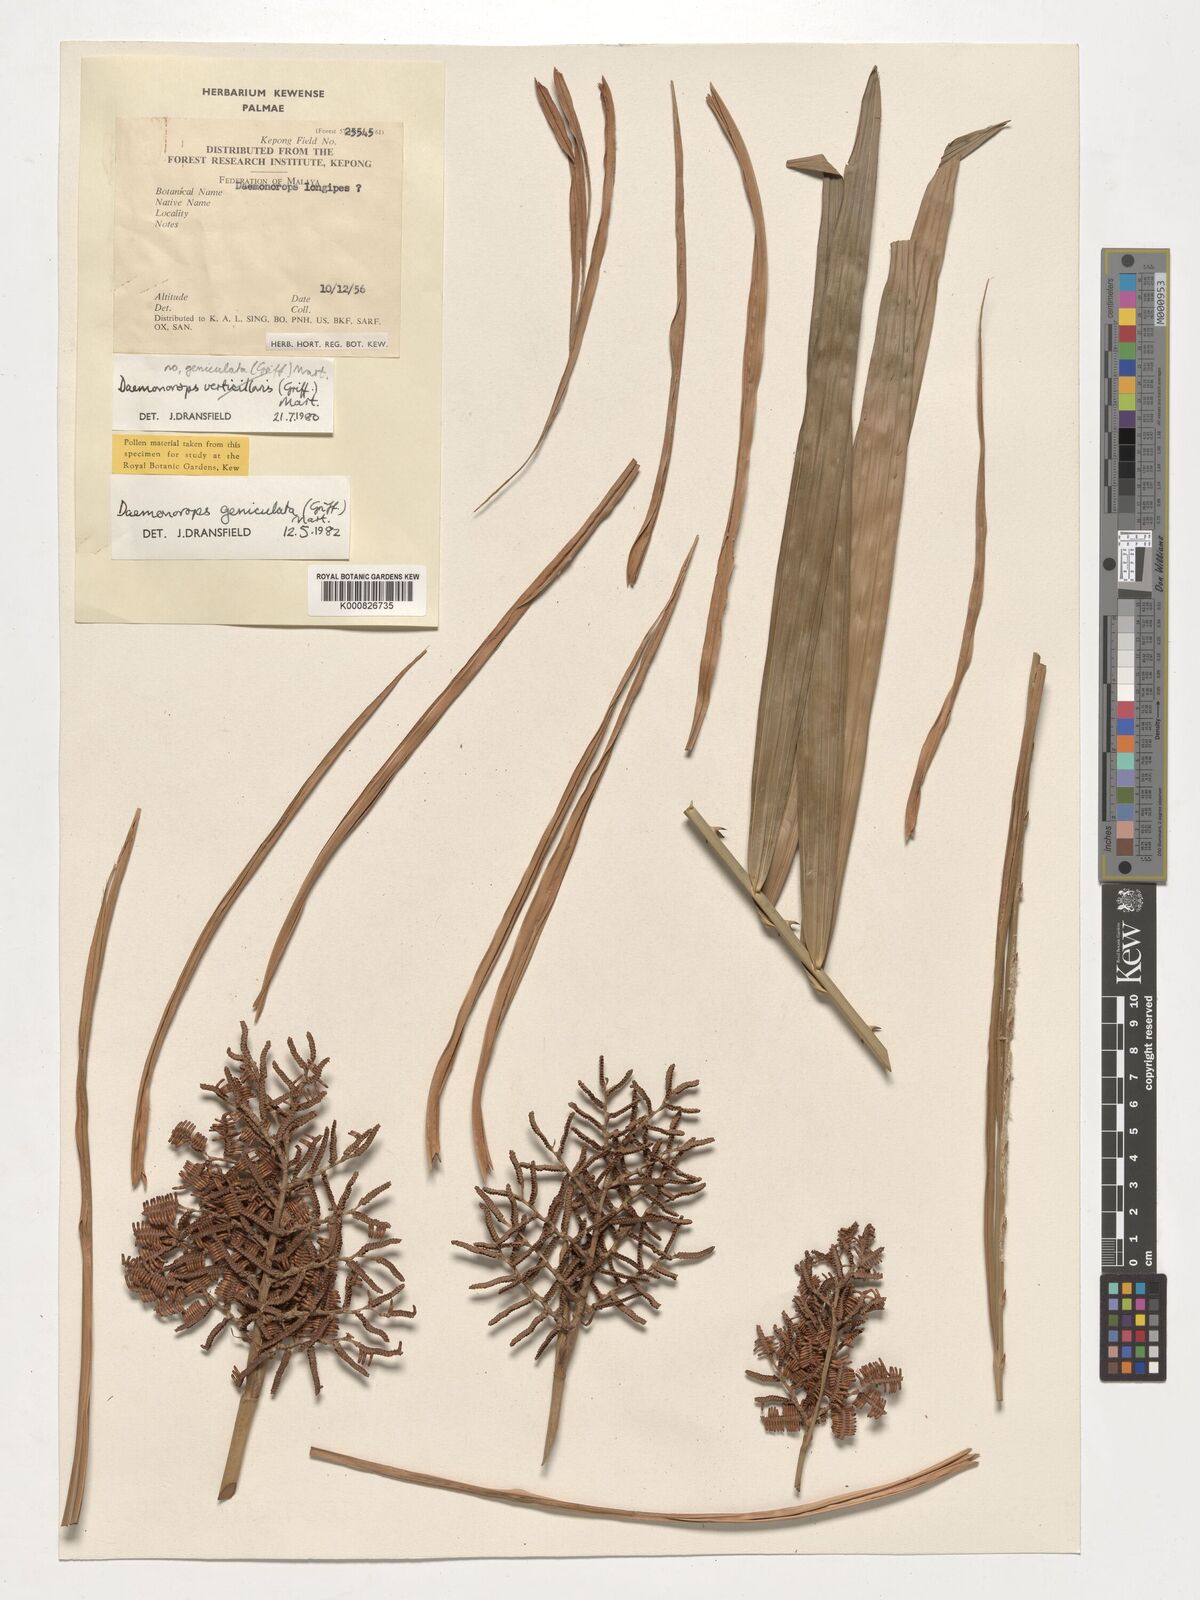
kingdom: Plantae
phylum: Tracheophyta
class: Liliopsida
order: Arecales
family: Arecaceae
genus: Calamus
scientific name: Calamus geniculatus
